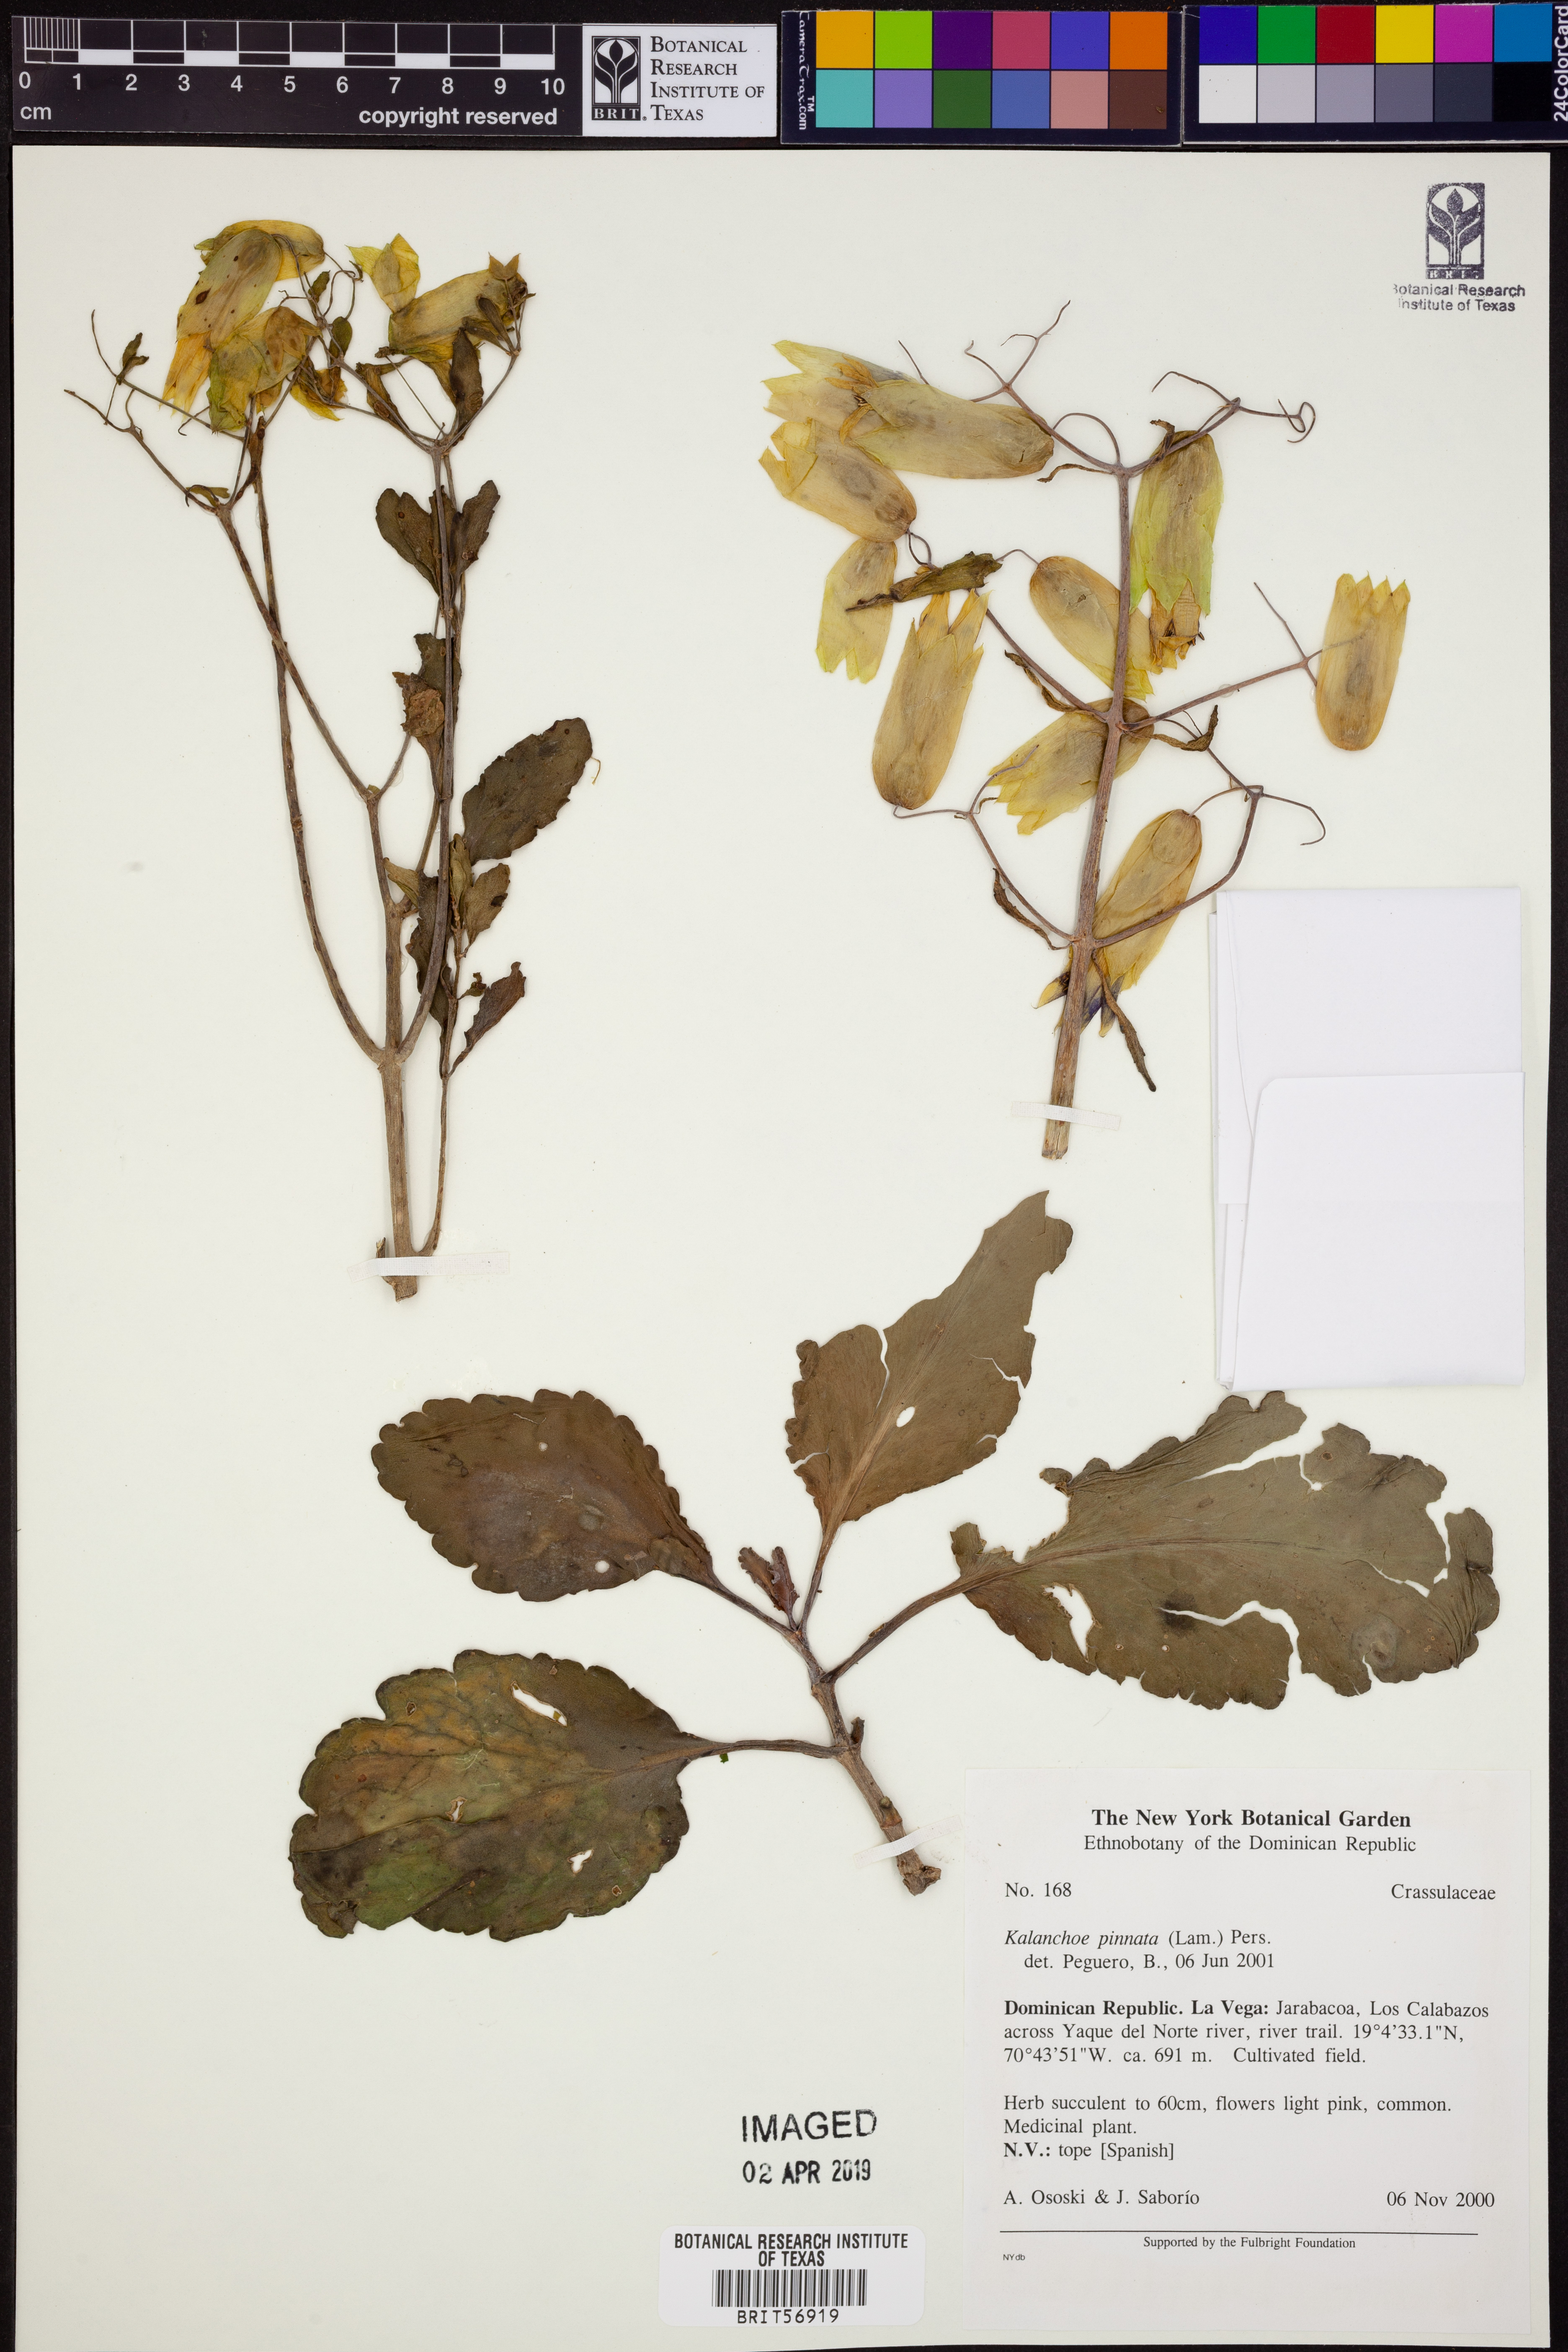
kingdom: Plantae
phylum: Tracheophyta
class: Magnoliopsida
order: Saxifragales
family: Crassulaceae
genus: Kalanchoe
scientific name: Kalanchoe pinnata
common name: Cathedral bells
